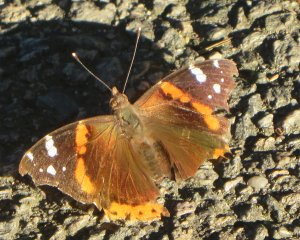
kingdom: Animalia
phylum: Arthropoda
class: Insecta
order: Lepidoptera
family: Nymphalidae
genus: Vanessa
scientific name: Vanessa atalanta
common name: Red Admiral
